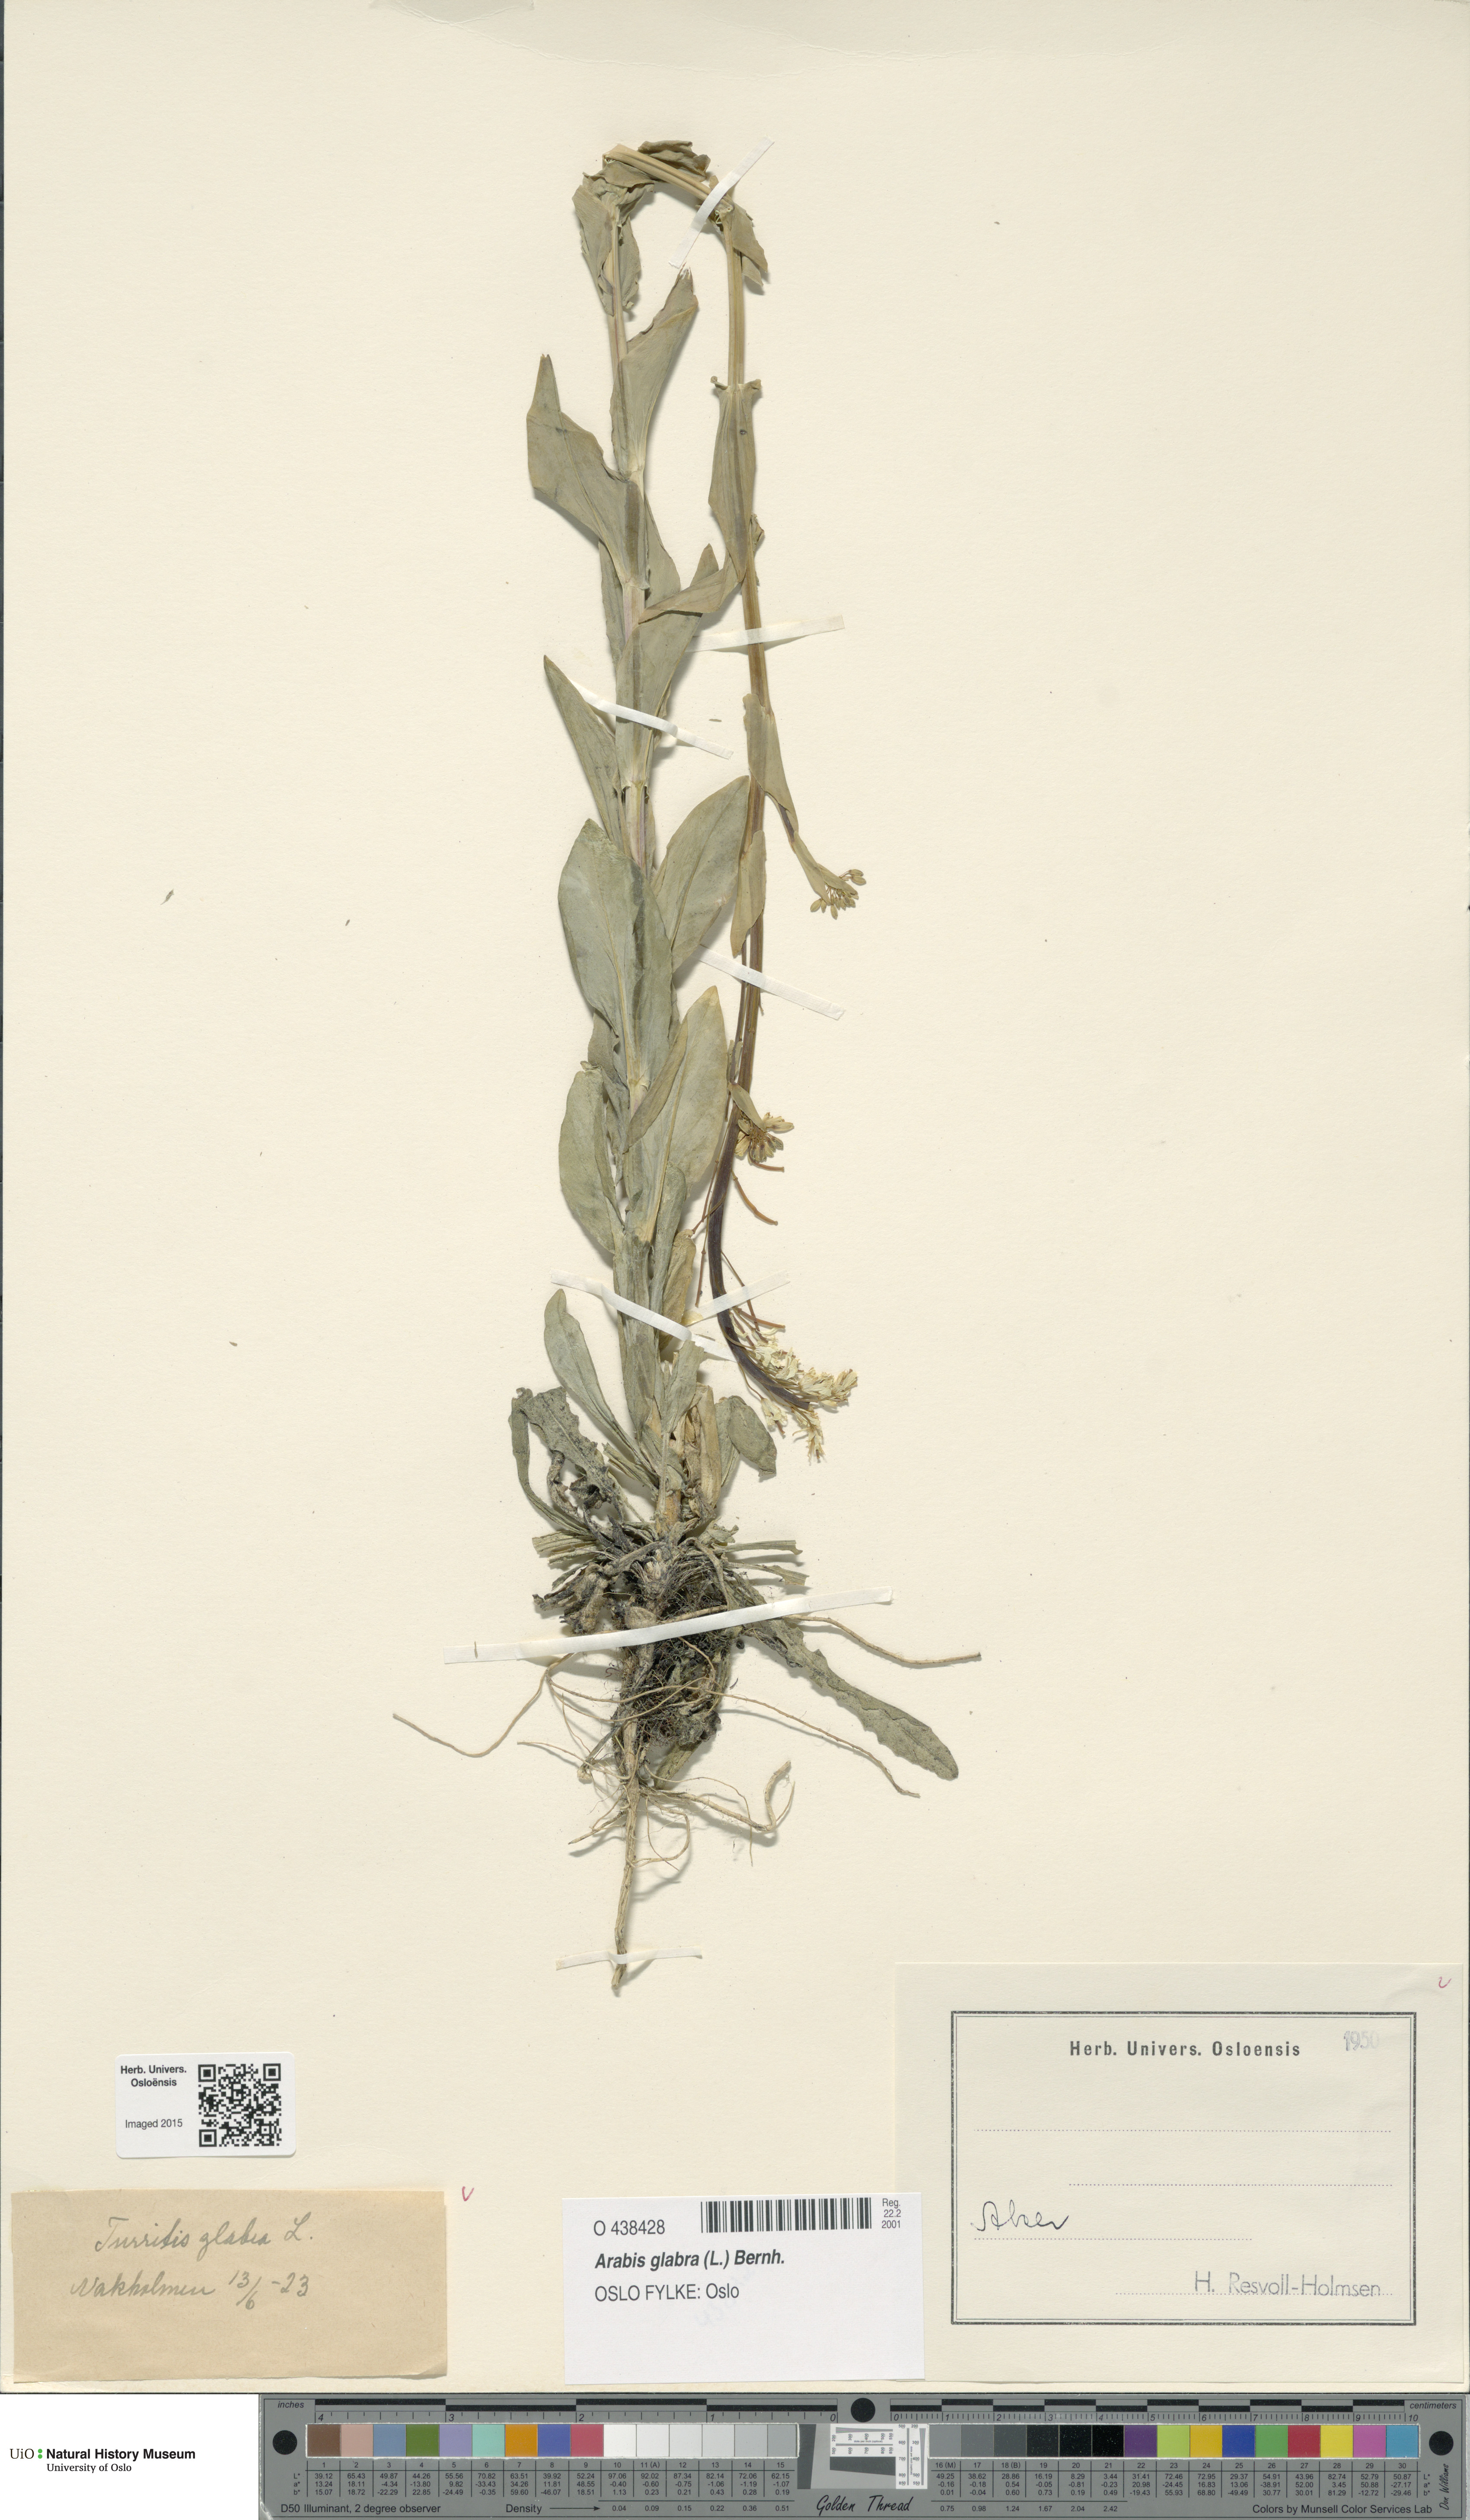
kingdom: Plantae
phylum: Tracheophyta
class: Magnoliopsida
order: Brassicales
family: Brassicaceae
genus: Turritis
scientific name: Turritis glabra
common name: Tower rockcress
